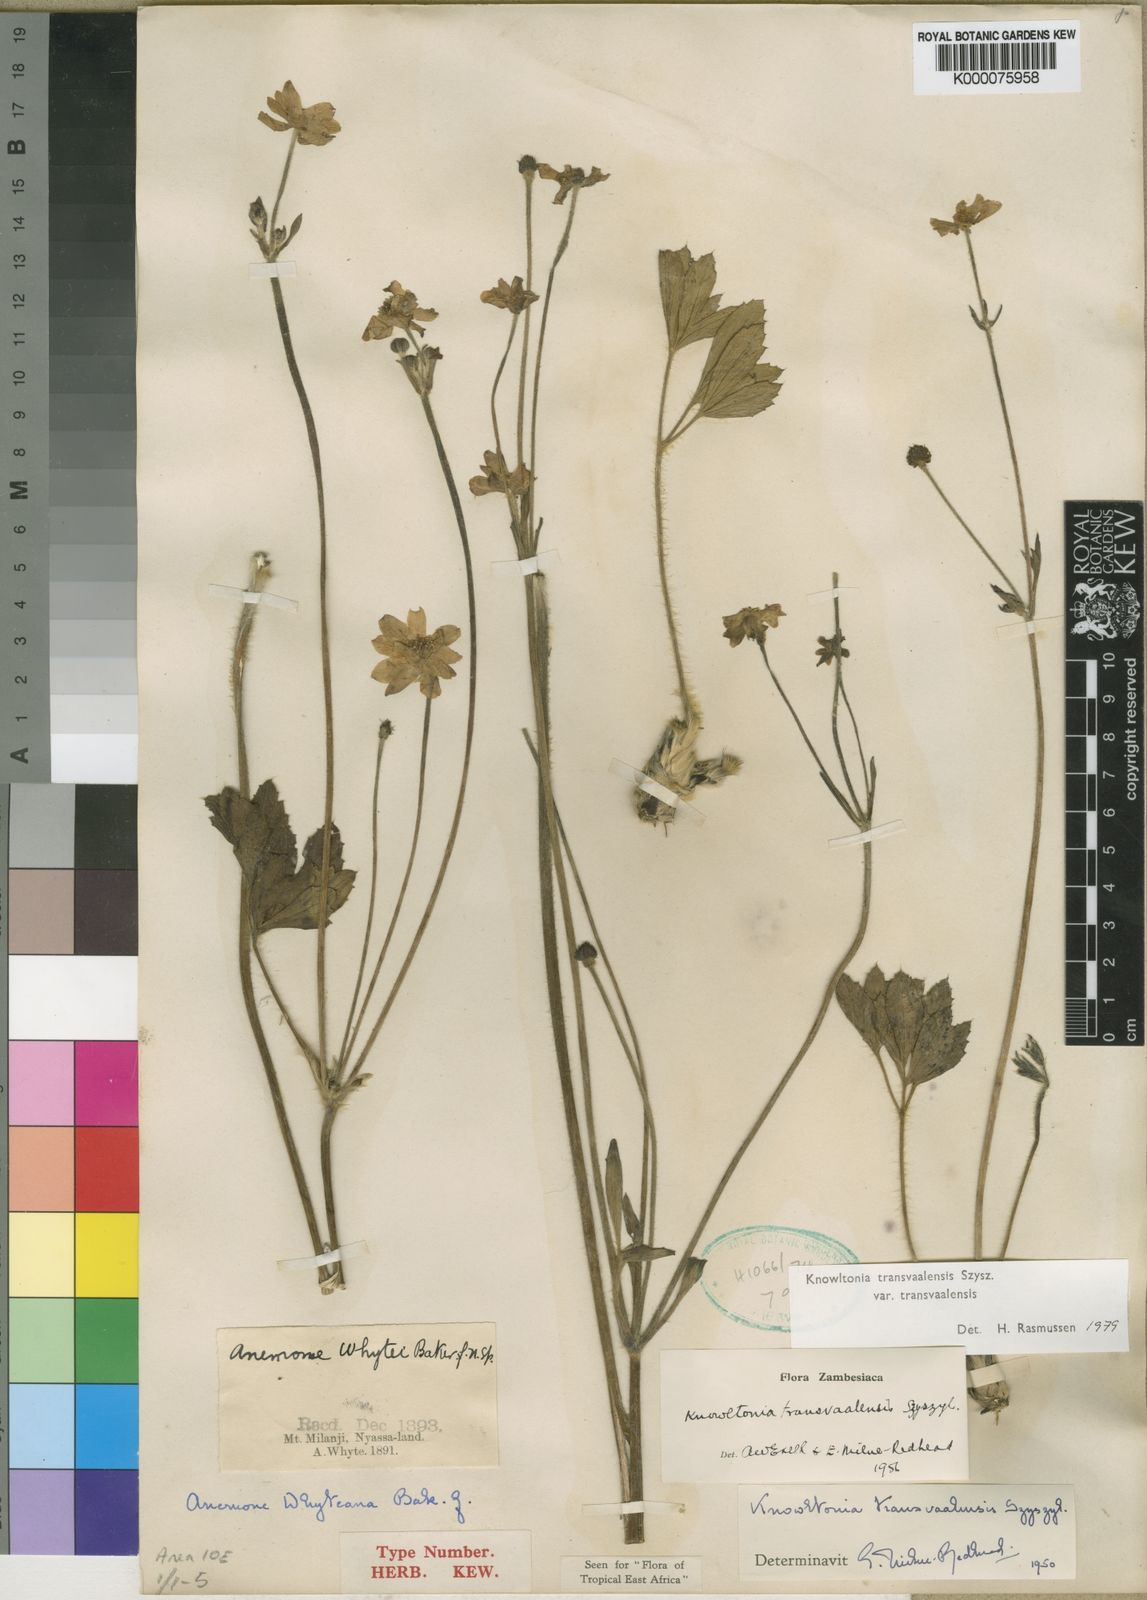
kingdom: Plantae
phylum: Tracheophyta
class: Magnoliopsida
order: Ranunculales
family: Ranunculaceae
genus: Knowltonia
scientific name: Knowltonia transvaalensis
